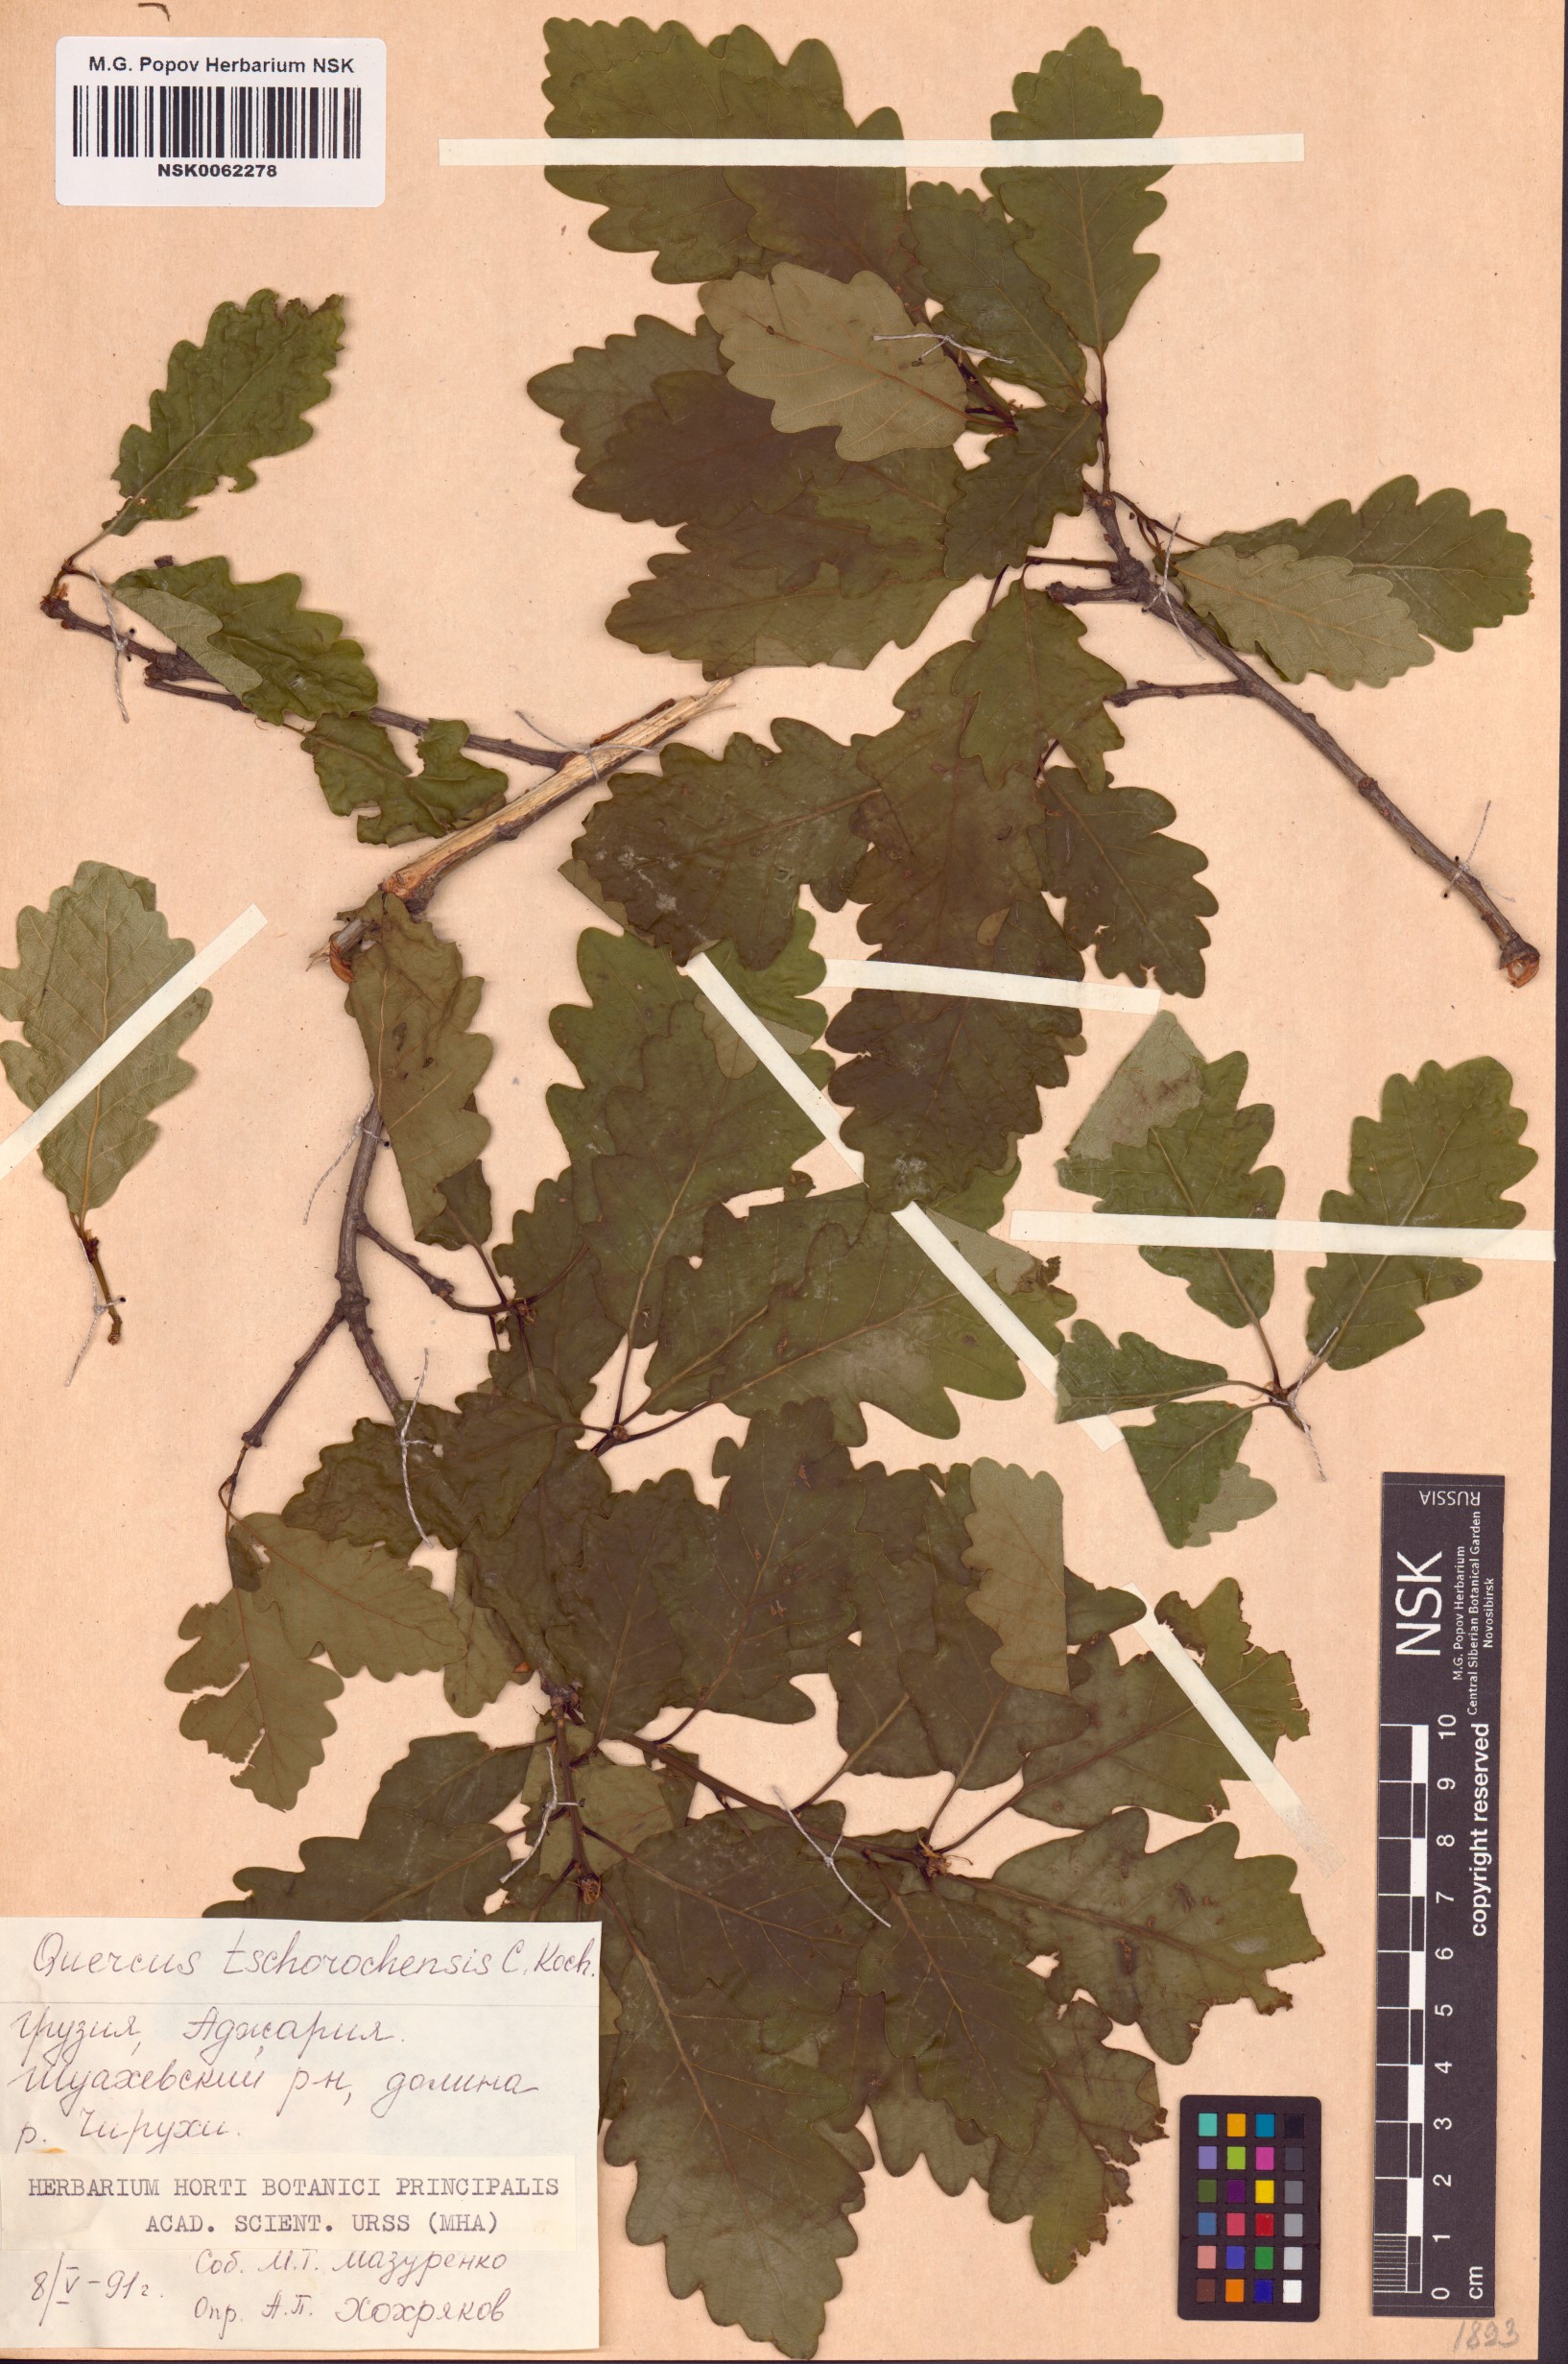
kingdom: Plantae
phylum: Tracheophyta
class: Magnoliopsida
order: Fagales
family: Fagaceae
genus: Quercus
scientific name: Quercus dschorochensis
